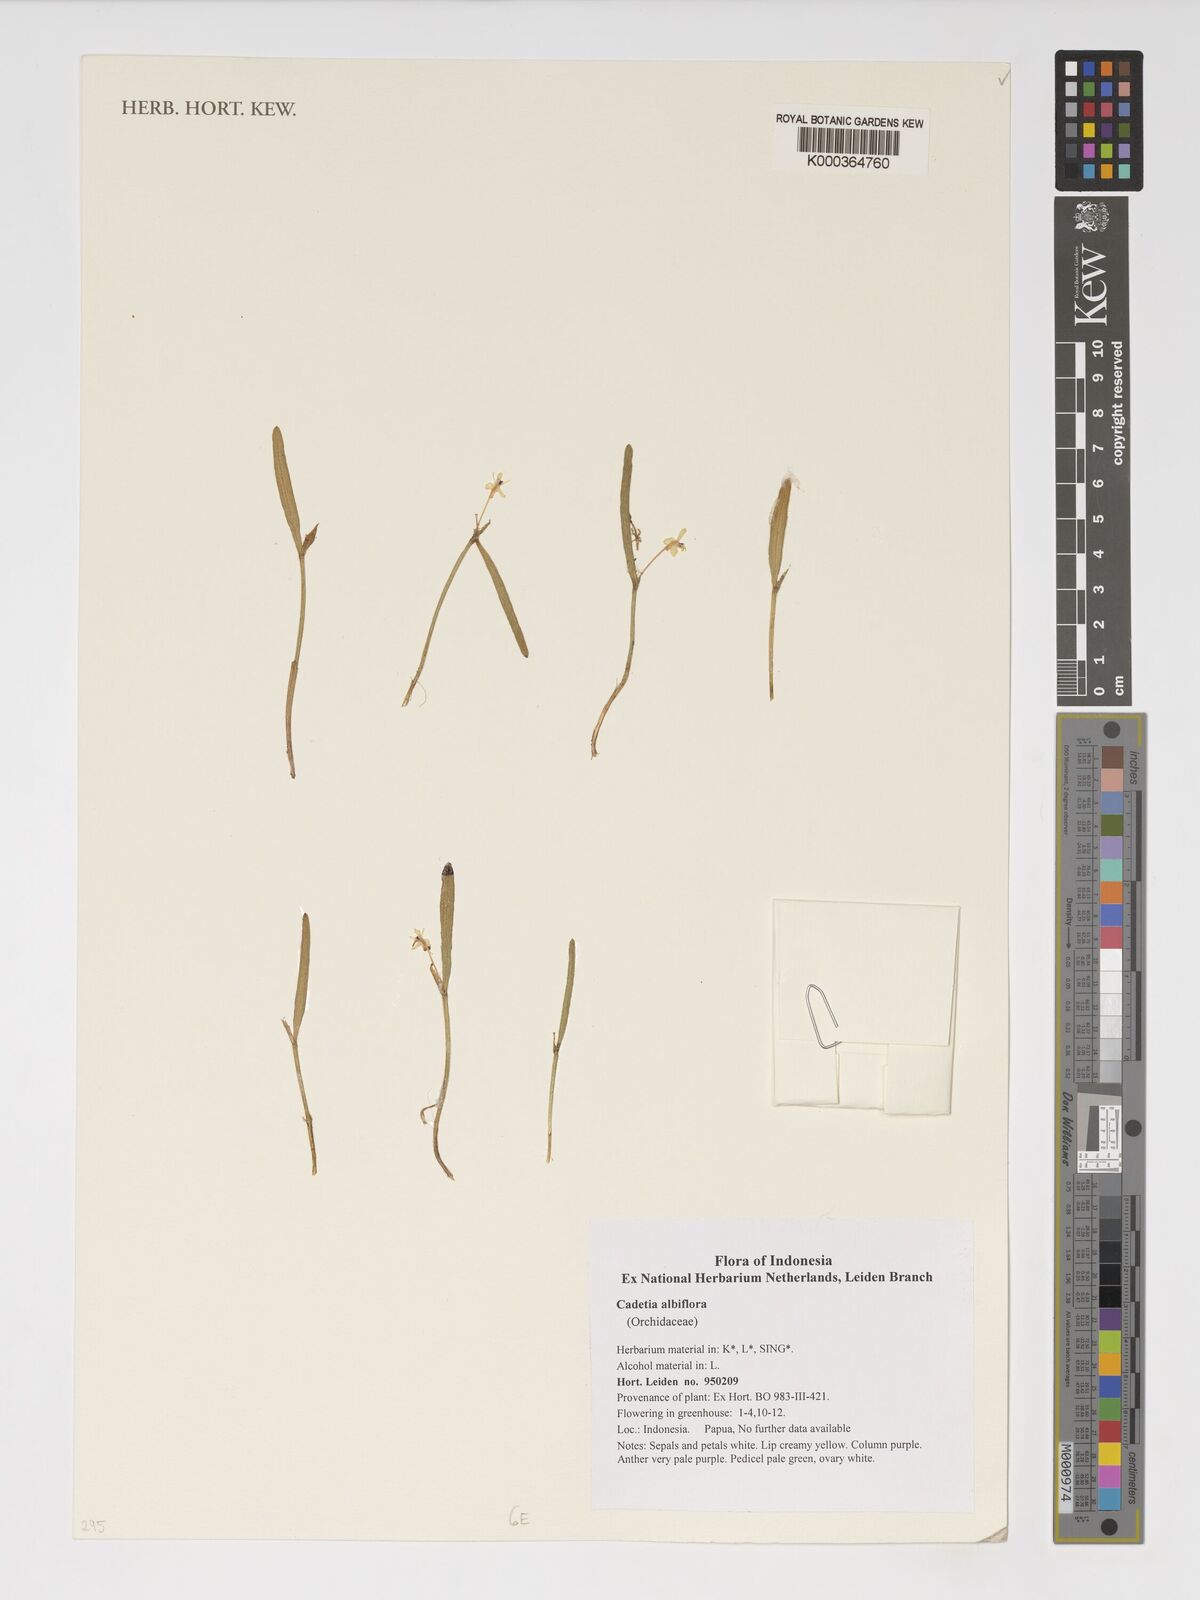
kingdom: Plantae
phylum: Tracheophyta
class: Liliopsida
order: Asparagales
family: Orchidaceae
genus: Dendrobium
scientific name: Dendrobium albiflorum
